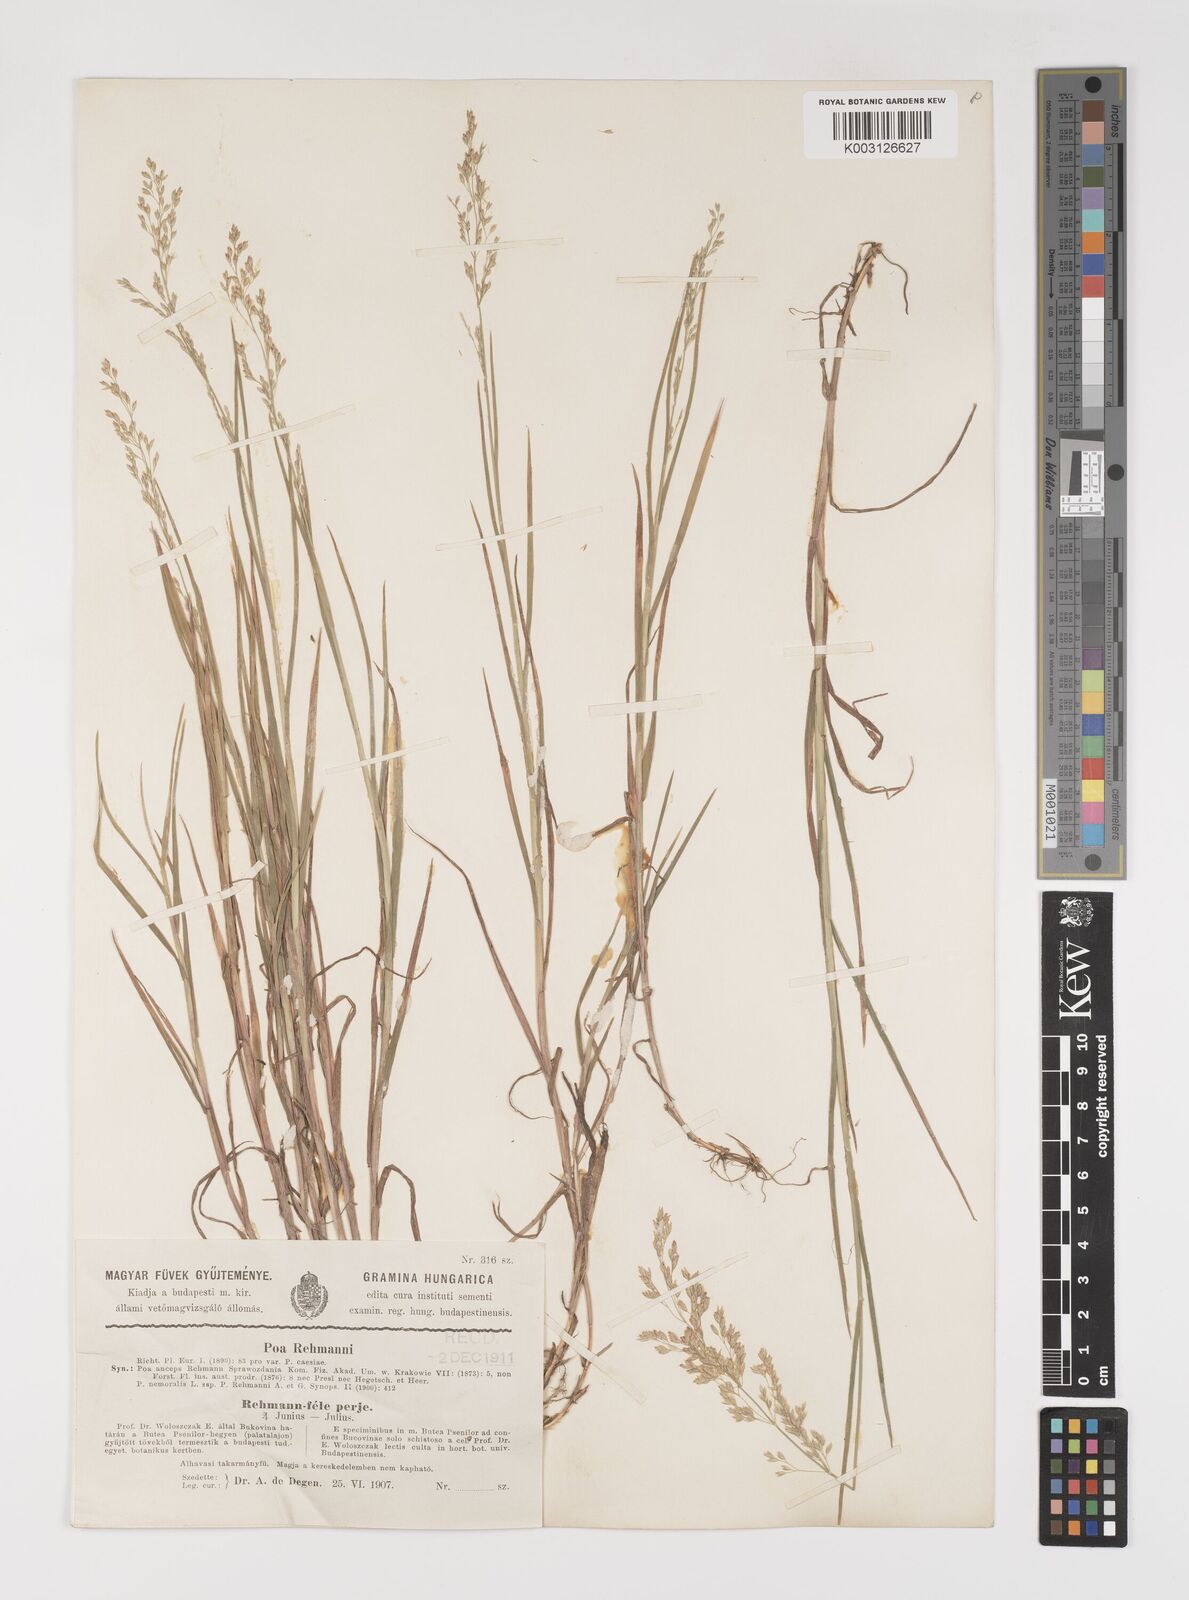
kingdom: Plantae
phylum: Tracheophyta
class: Liliopsida
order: Poales
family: Poaceae
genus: Poa
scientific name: Poa rehmannii
